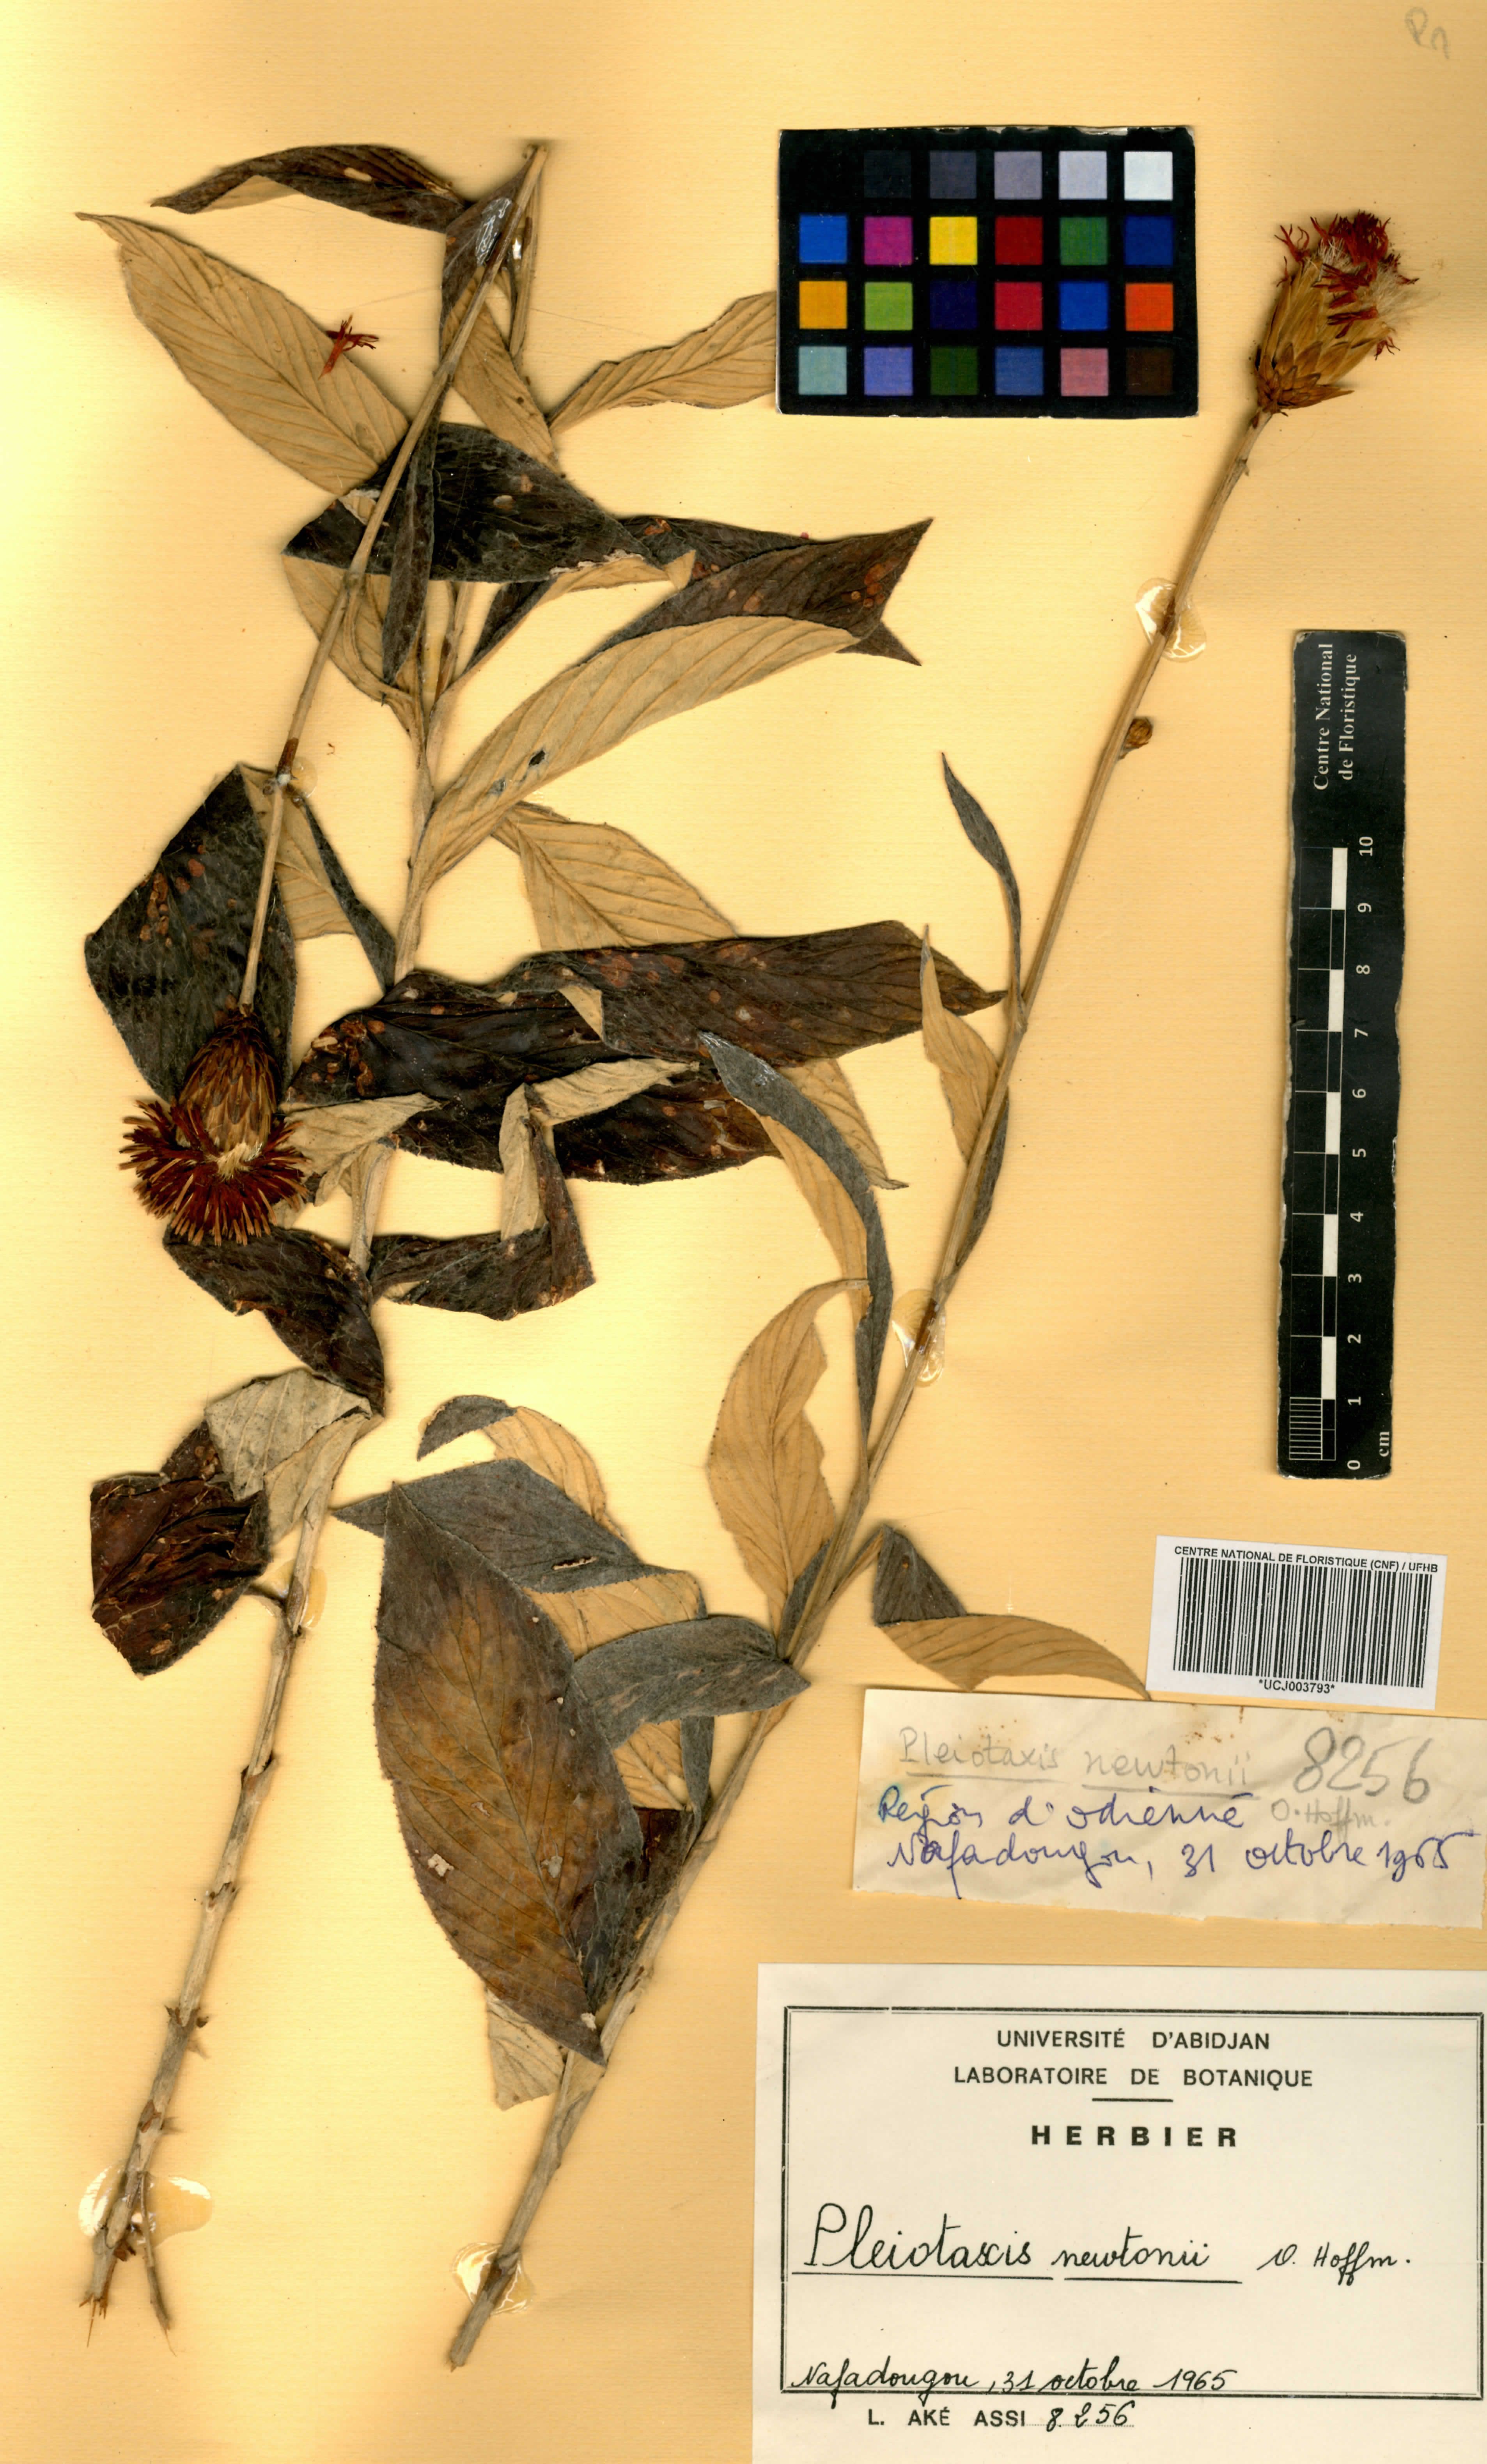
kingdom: Plantae
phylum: Tracheophyta
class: Magnoliopsida
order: Asterales
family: Asteraceae
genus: Pleiotaxis
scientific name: Pleiotaxis newtonii
